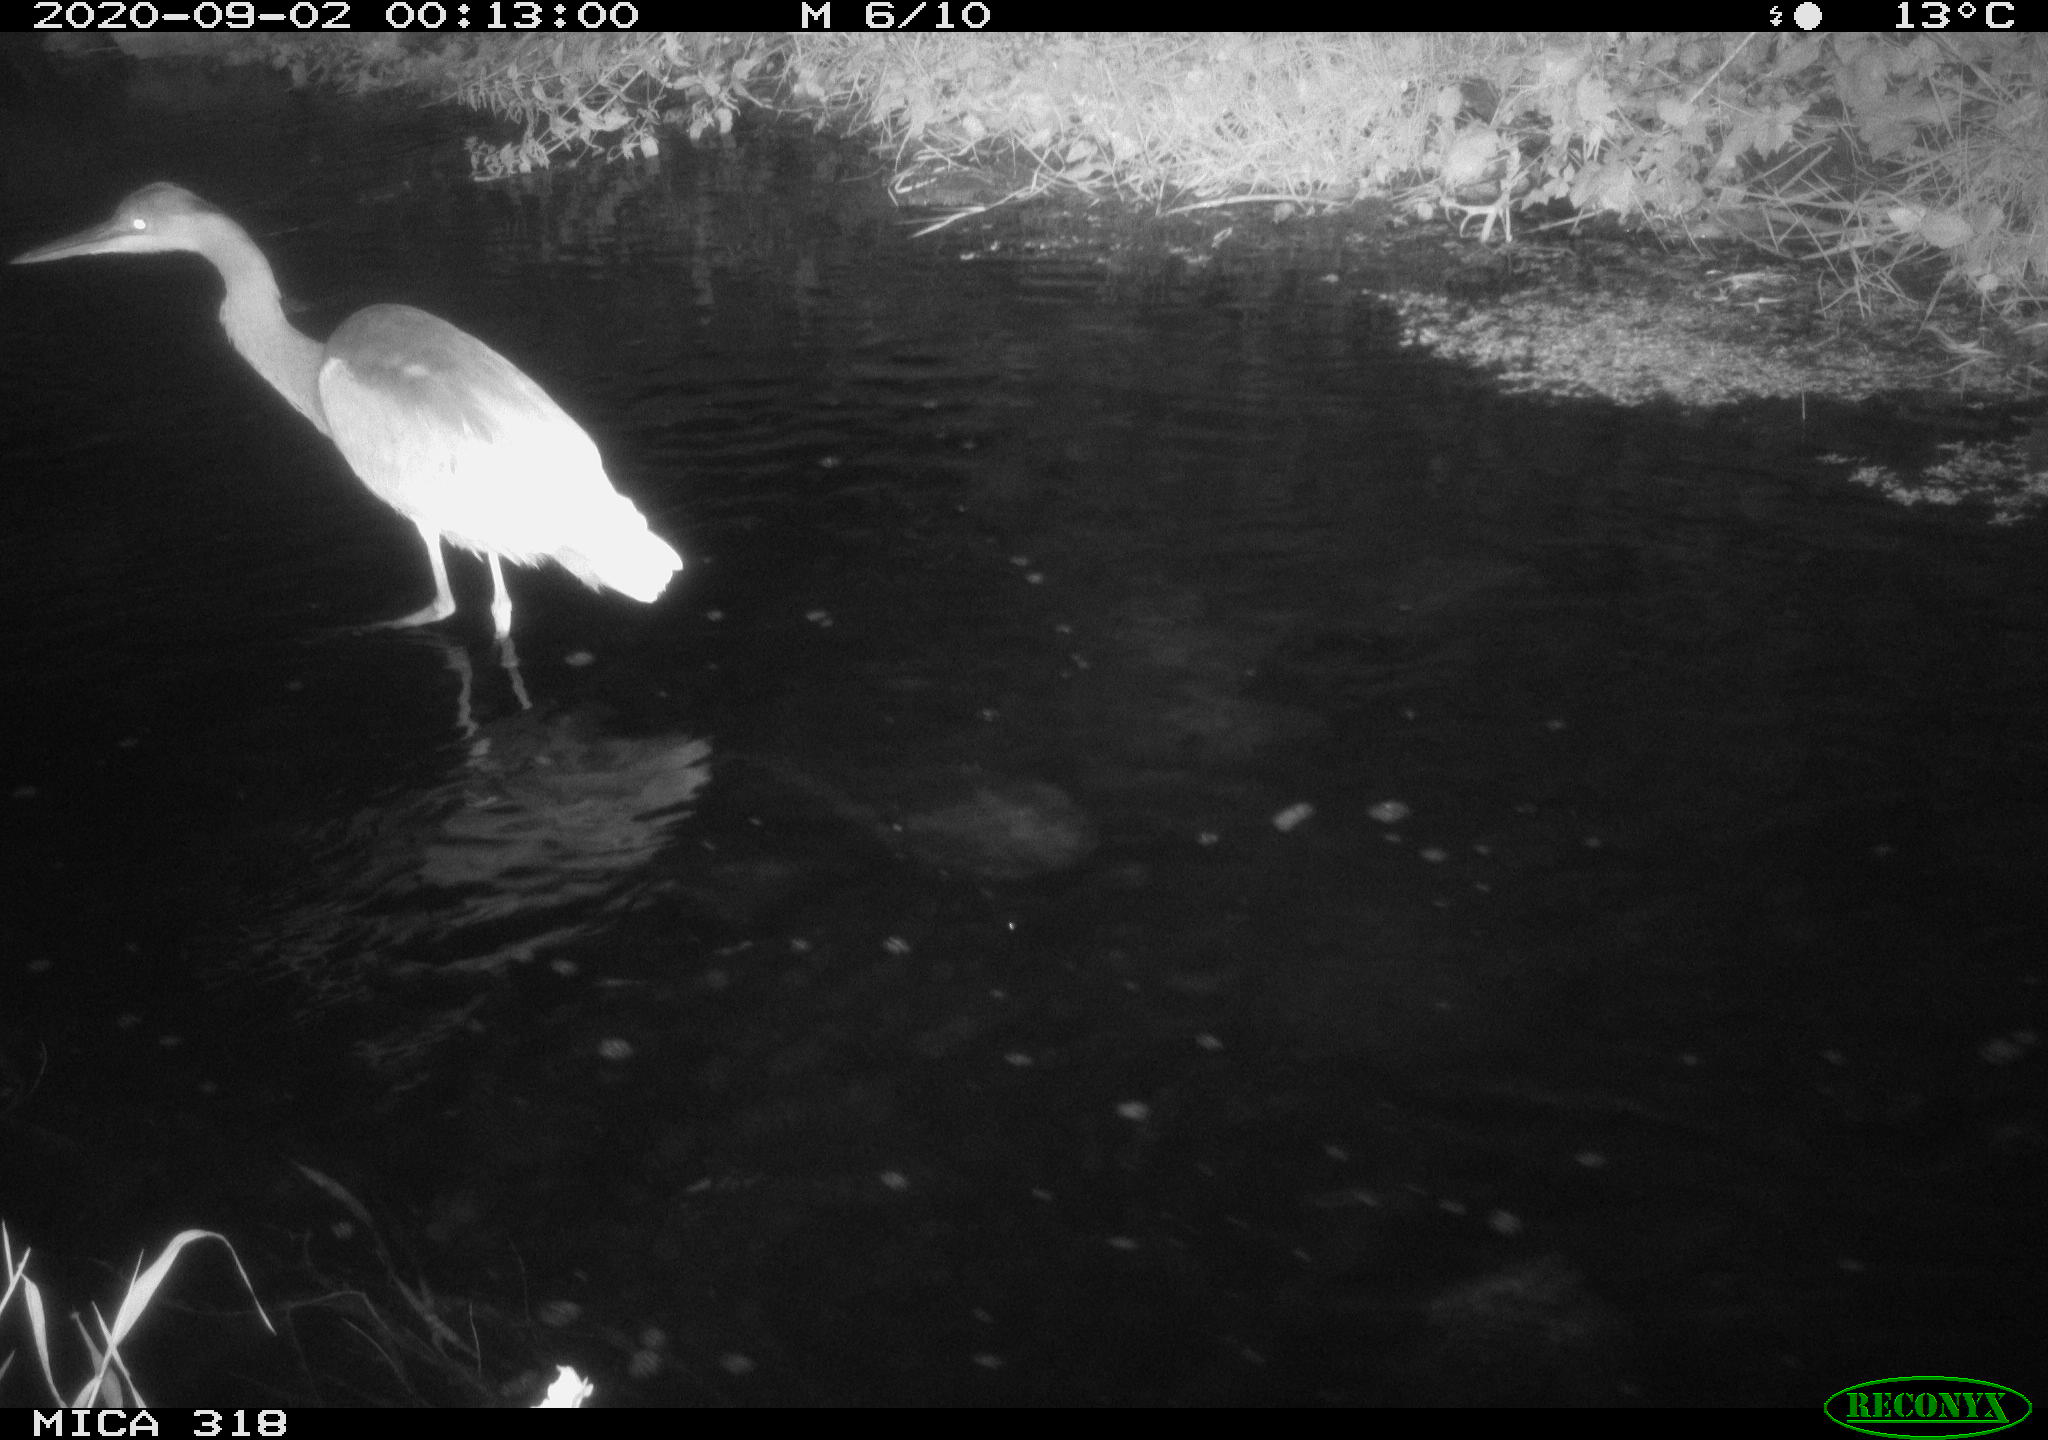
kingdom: Animalia
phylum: Chordata
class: Aves
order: Pelecaniformes
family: Ardeidae
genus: Ardea
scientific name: Ardea
